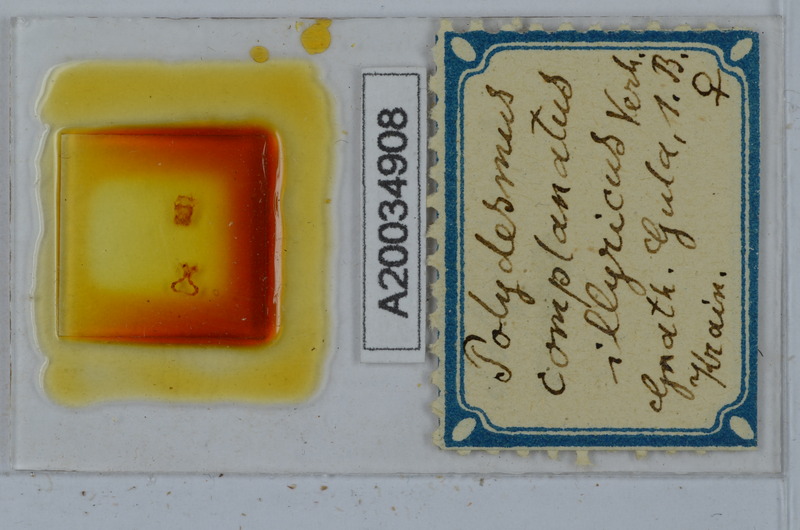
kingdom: Animalia
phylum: Arthropoda
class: Diplopoda
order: Polydesmida
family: Polydesmidae
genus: Polydesmus
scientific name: Polydesmus complanatus
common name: Flat-backed millipede
